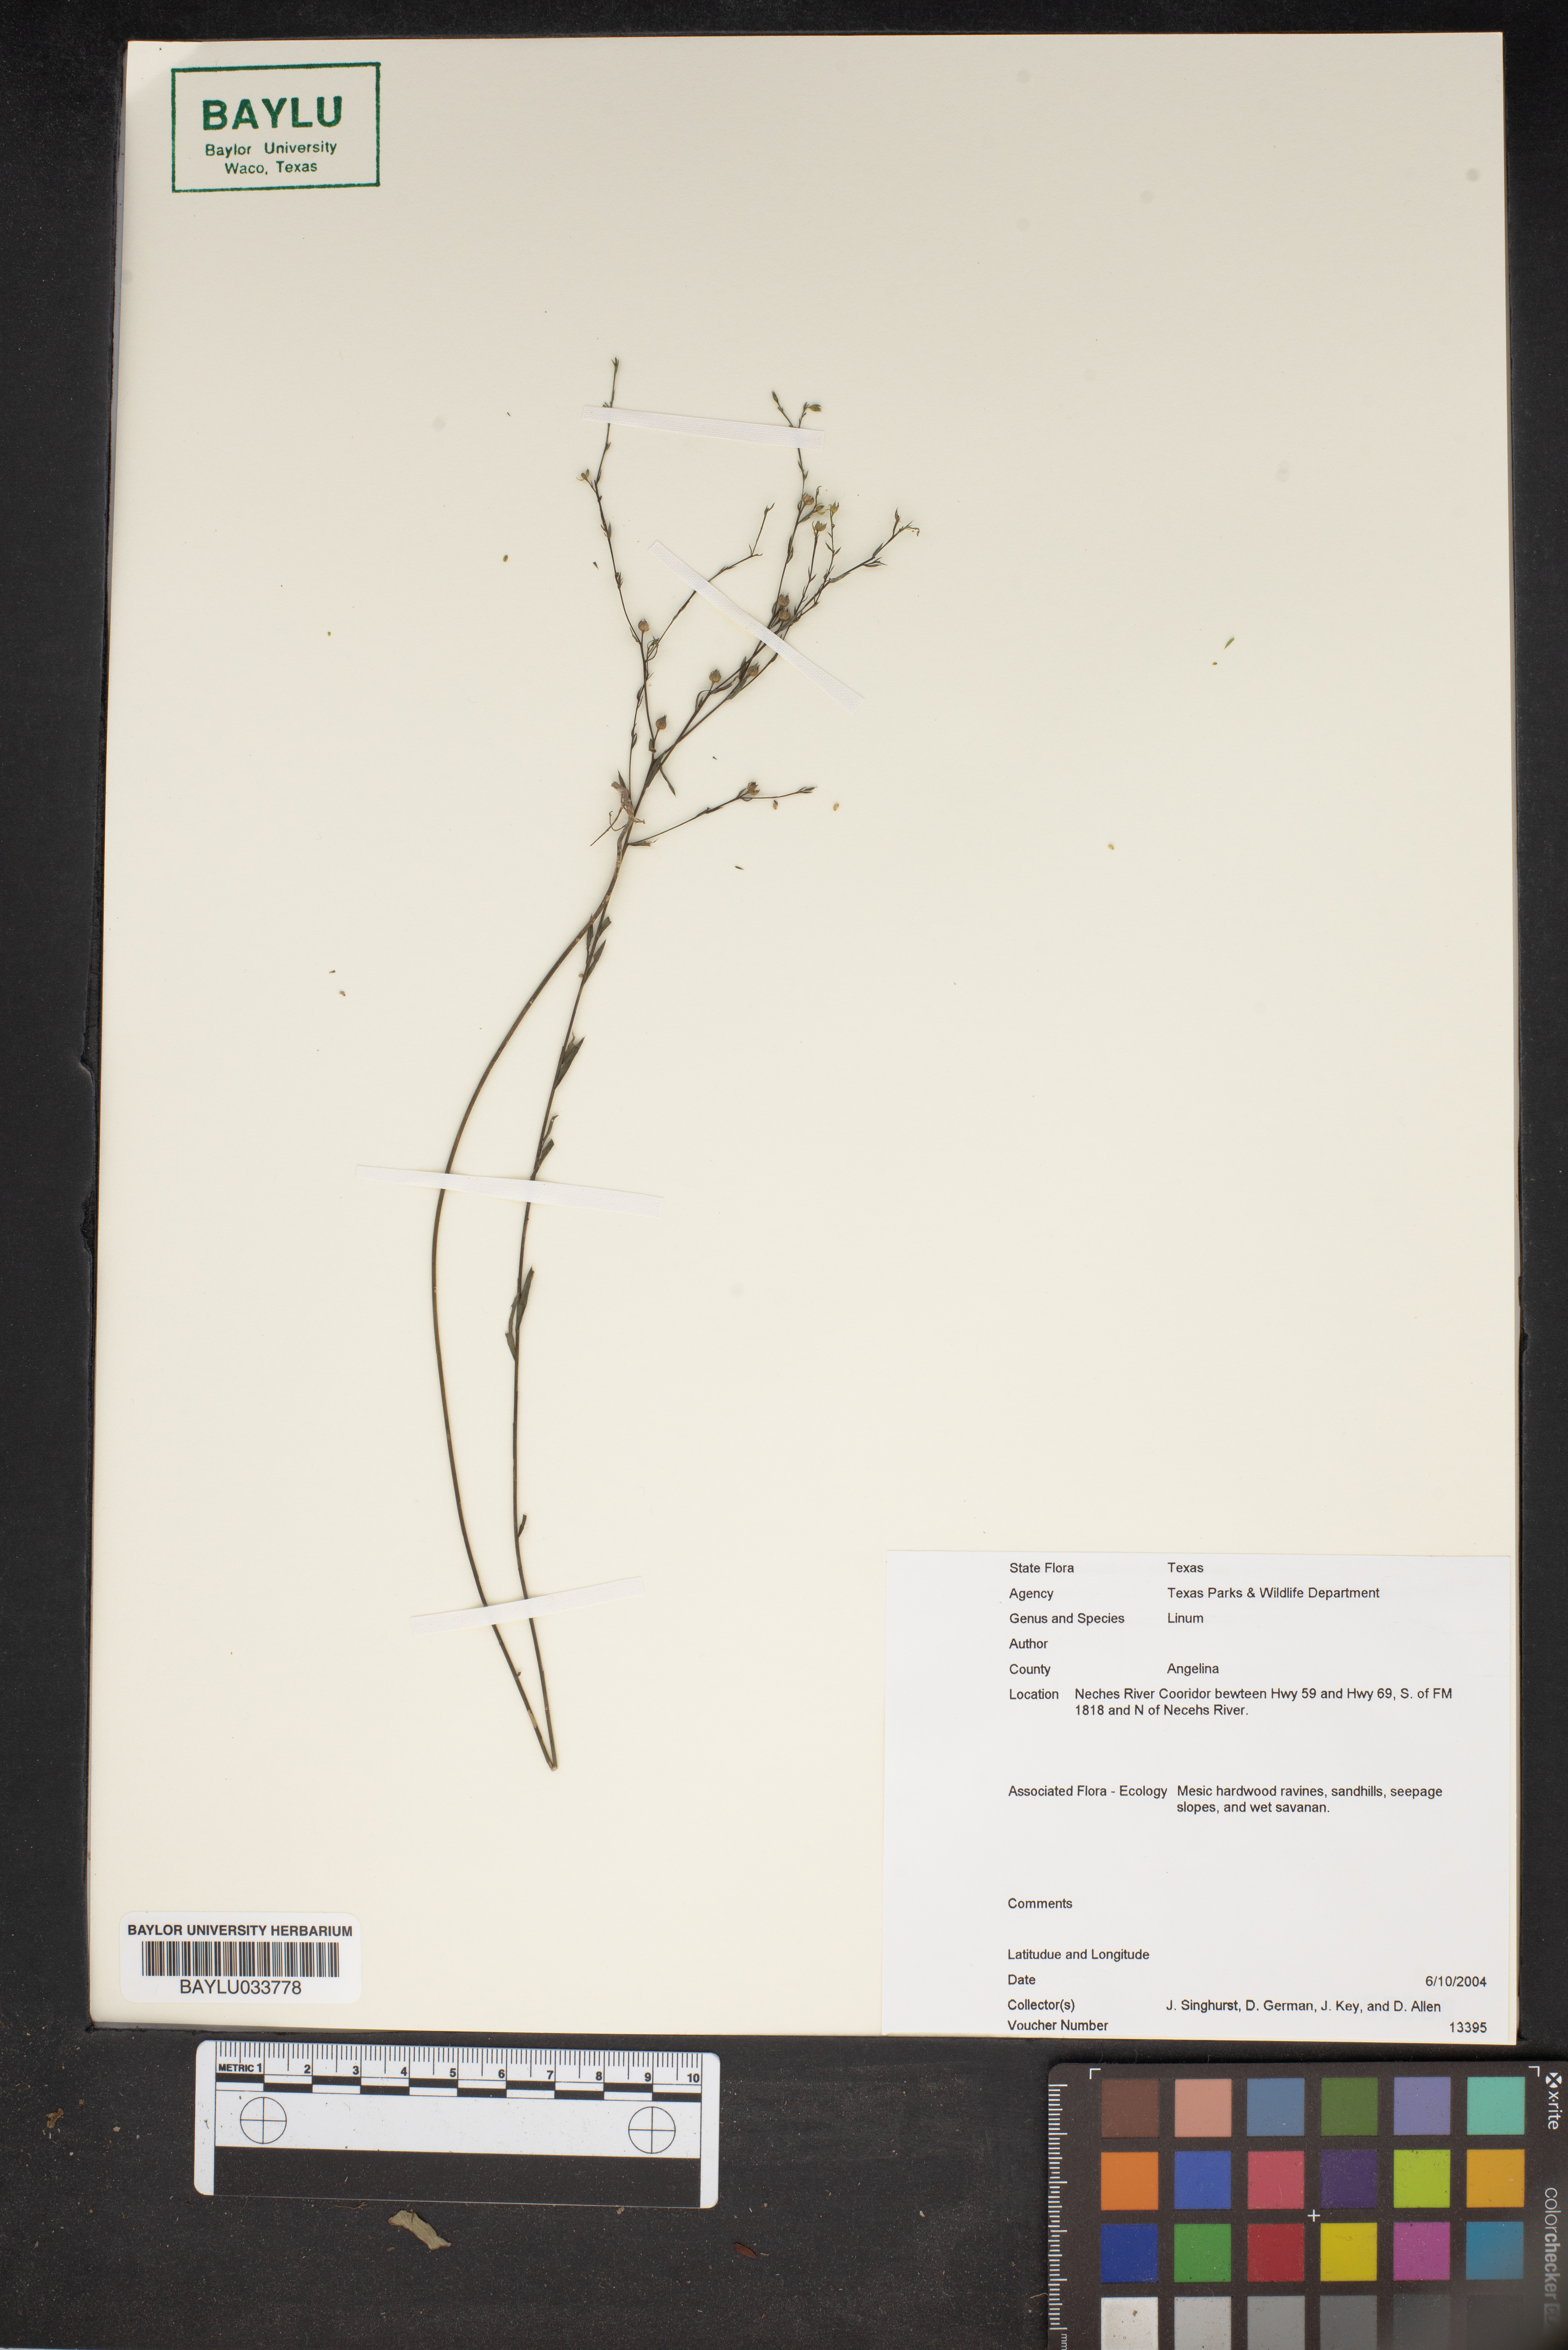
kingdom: Plantae
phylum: Tracheophyta
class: Magnoliopsida
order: Malpighiales
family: Linaceae
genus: Linum
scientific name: Linum
